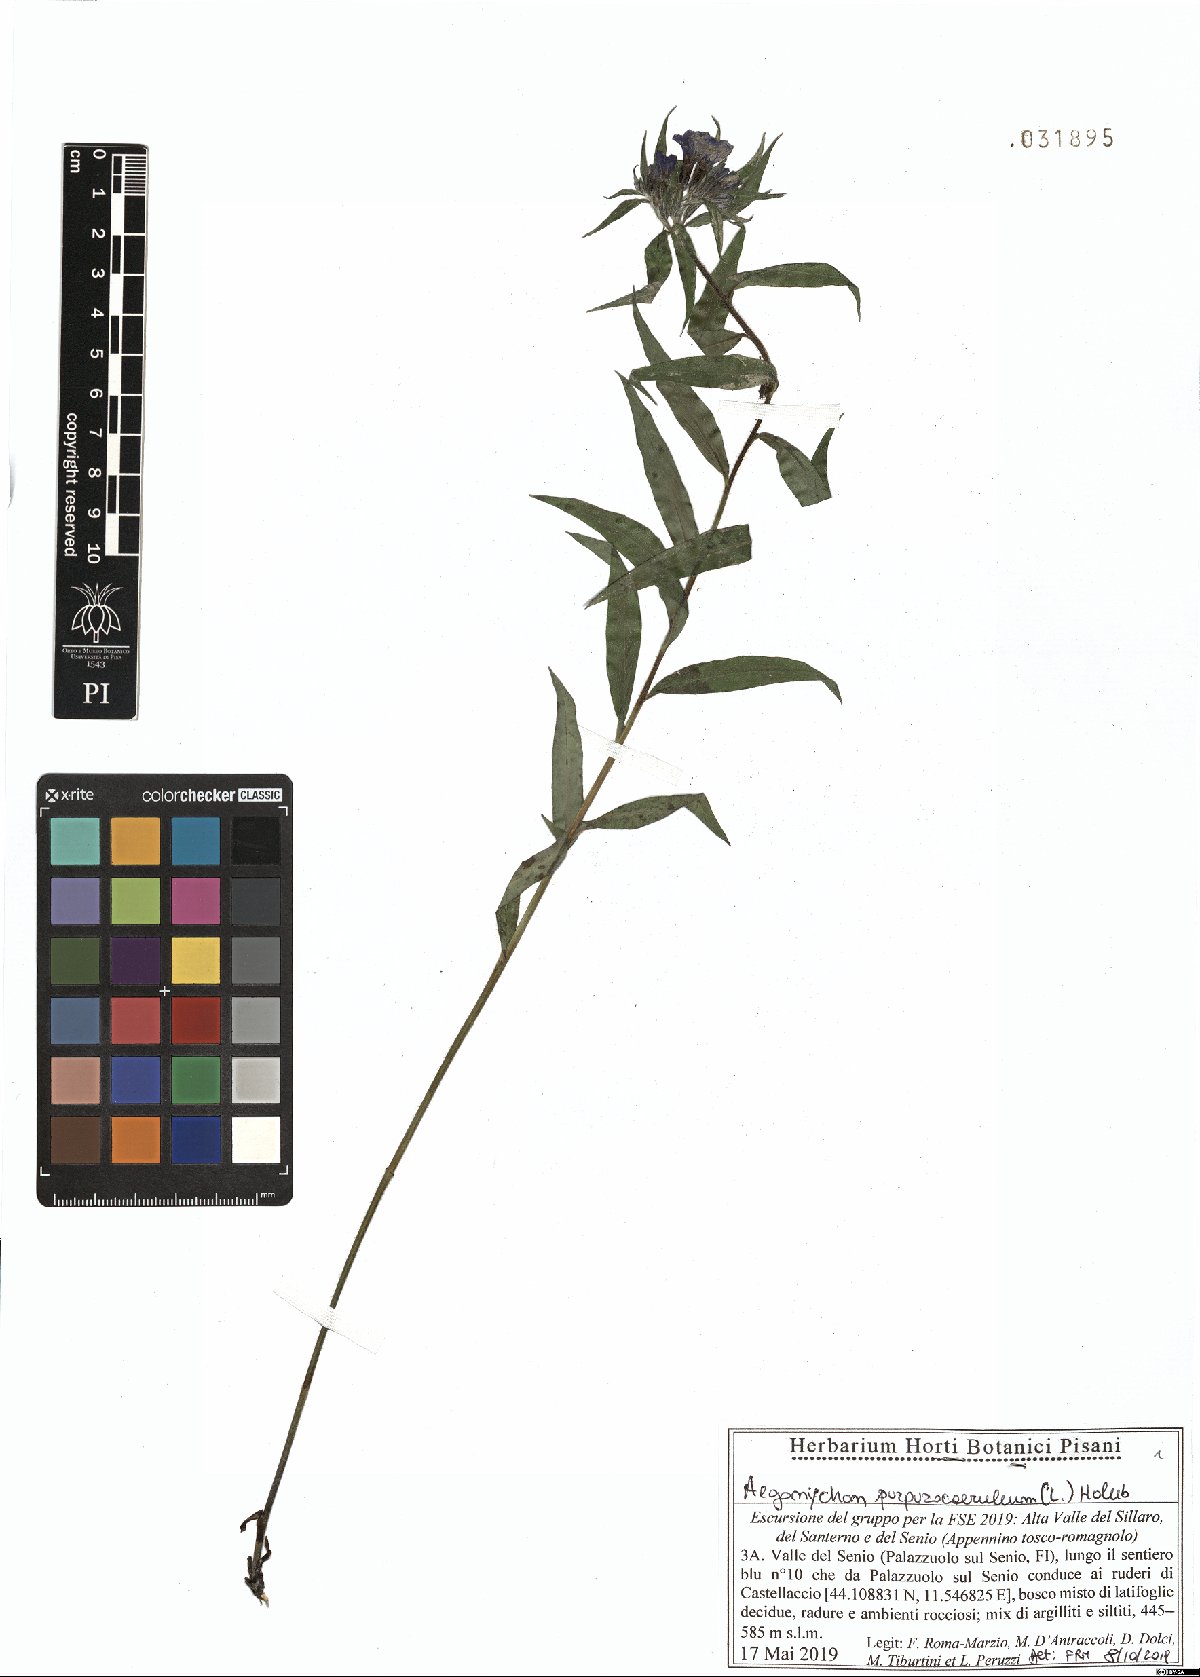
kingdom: Plantae
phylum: Tracheophyta
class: Magnoliopsida
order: Boraginales
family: Boraginaceae
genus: Aegonychon
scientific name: Aegonychon purpurocaeruleum
